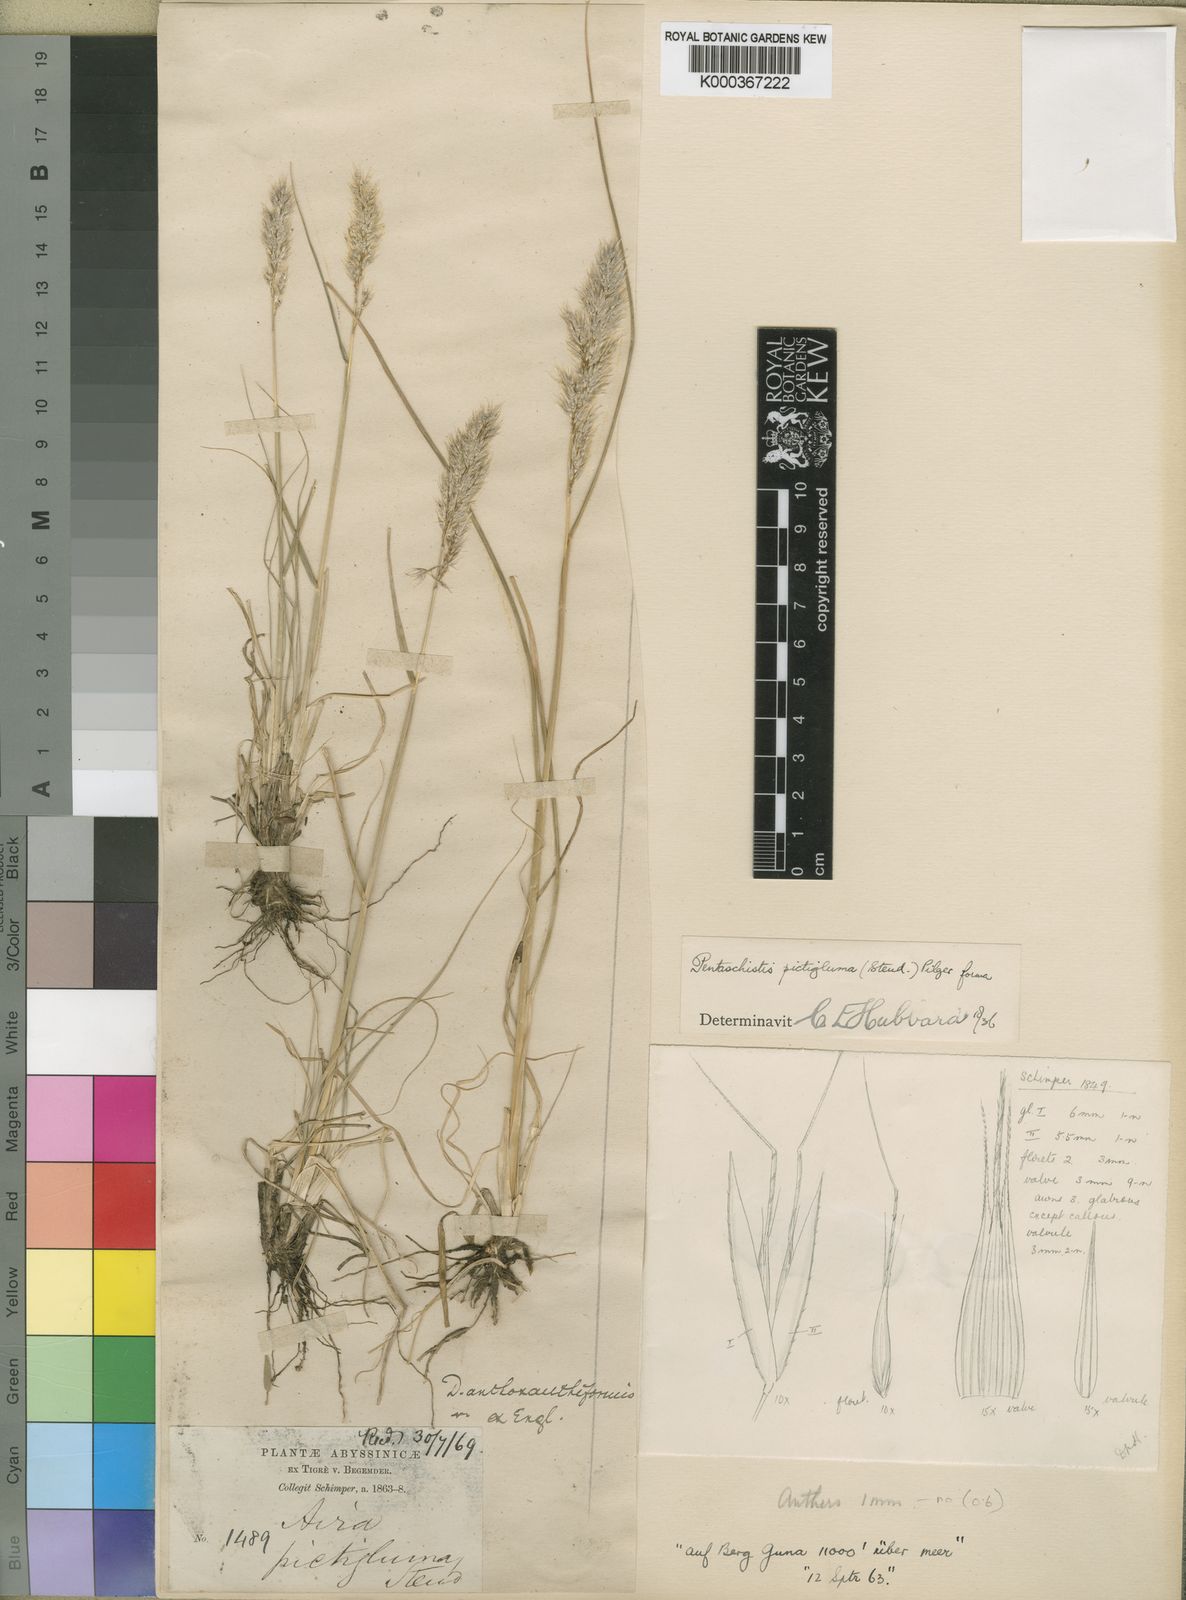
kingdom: Plantae
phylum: Tracheophyta
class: Liliopsida
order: Poales
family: Poaceae
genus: Pentameris
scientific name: Pentameris pictigluma
